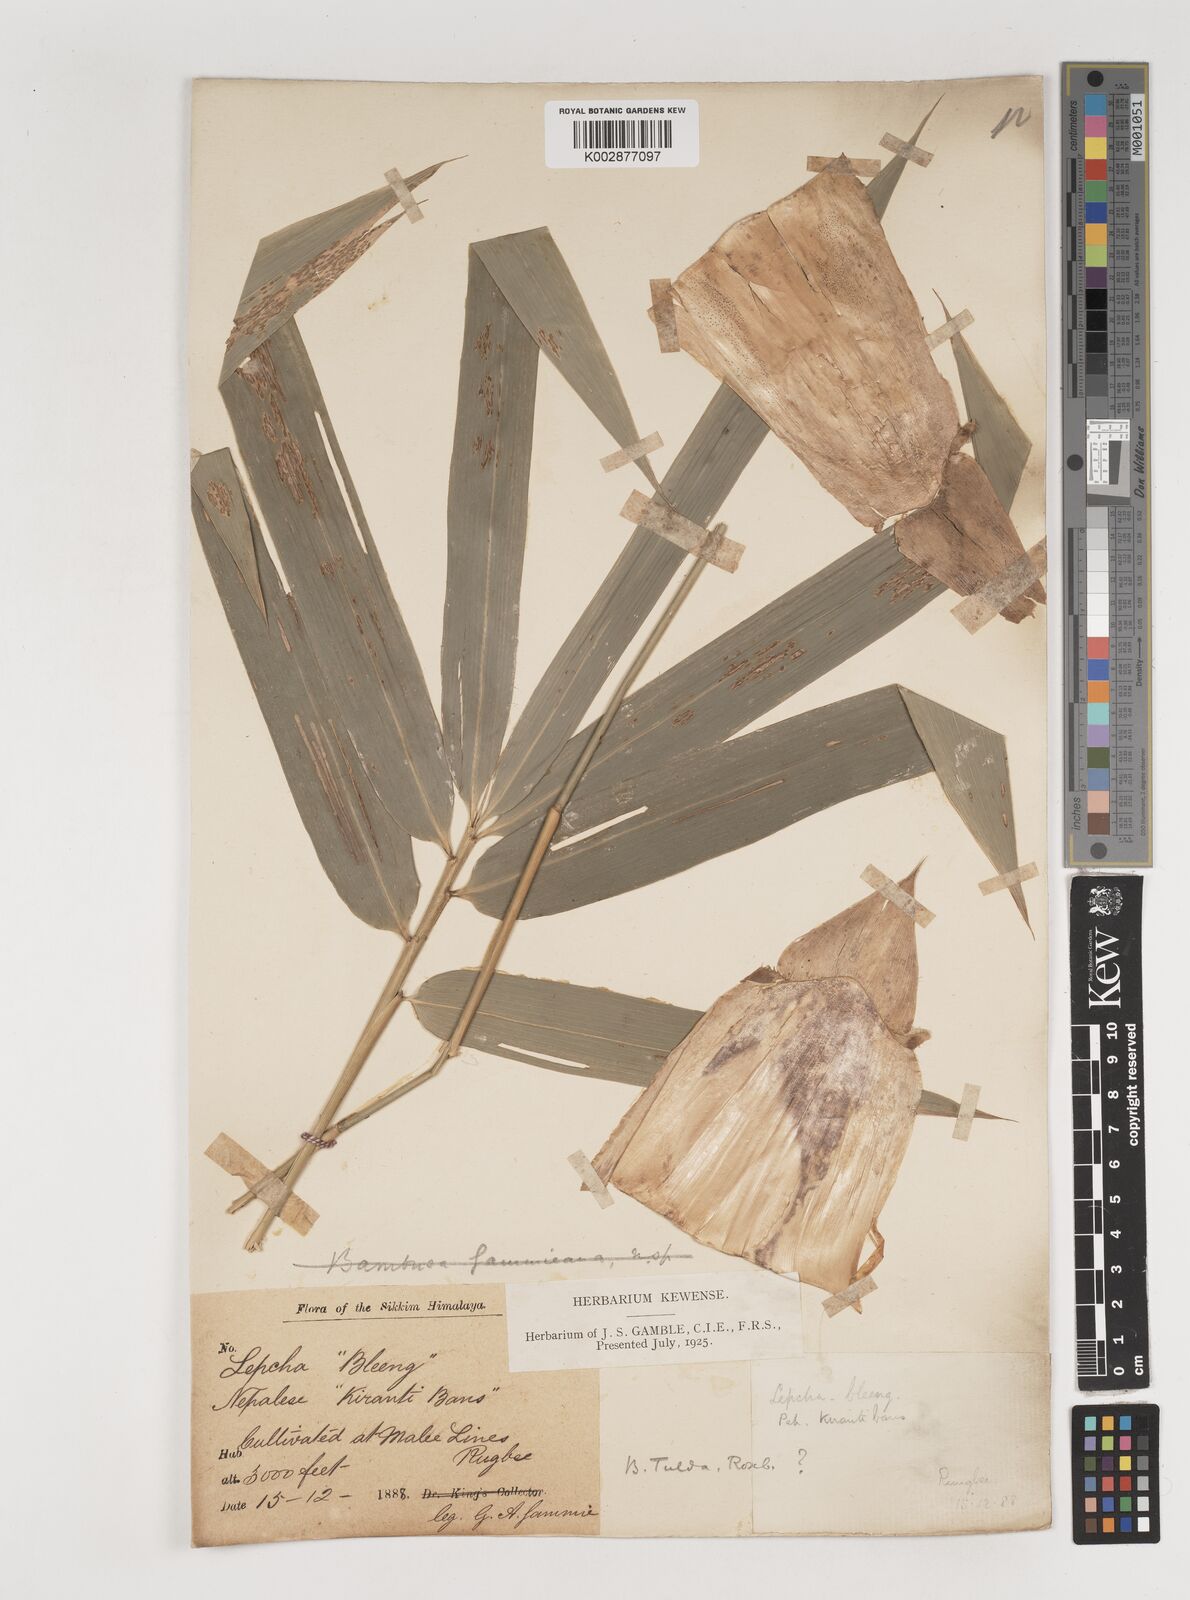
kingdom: Plantae
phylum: Tracheophyta
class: Liliopsida
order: Poales
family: Poaceae
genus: Bambusa
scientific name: Bambusa
